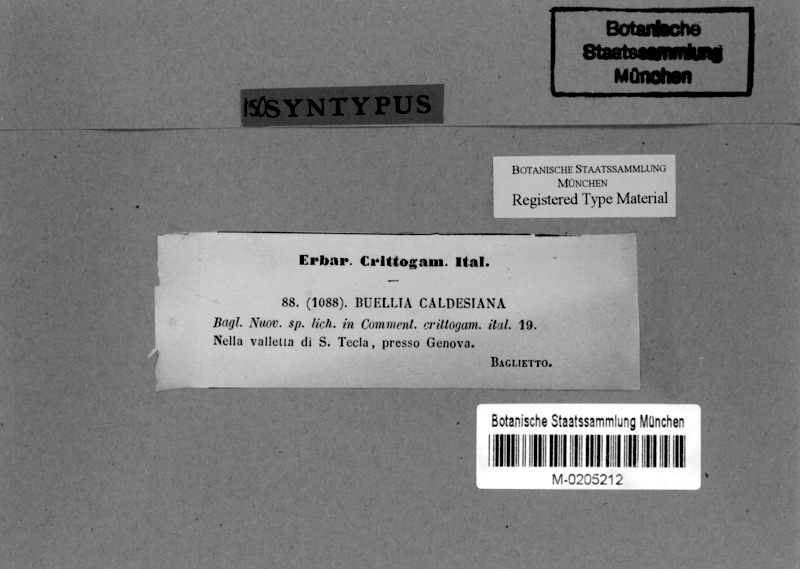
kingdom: Fungi
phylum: Ascomycota
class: Lecanoromycetes
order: Caliciales
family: Caliciaceae
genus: Buellia
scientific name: Buellia caldesiana
